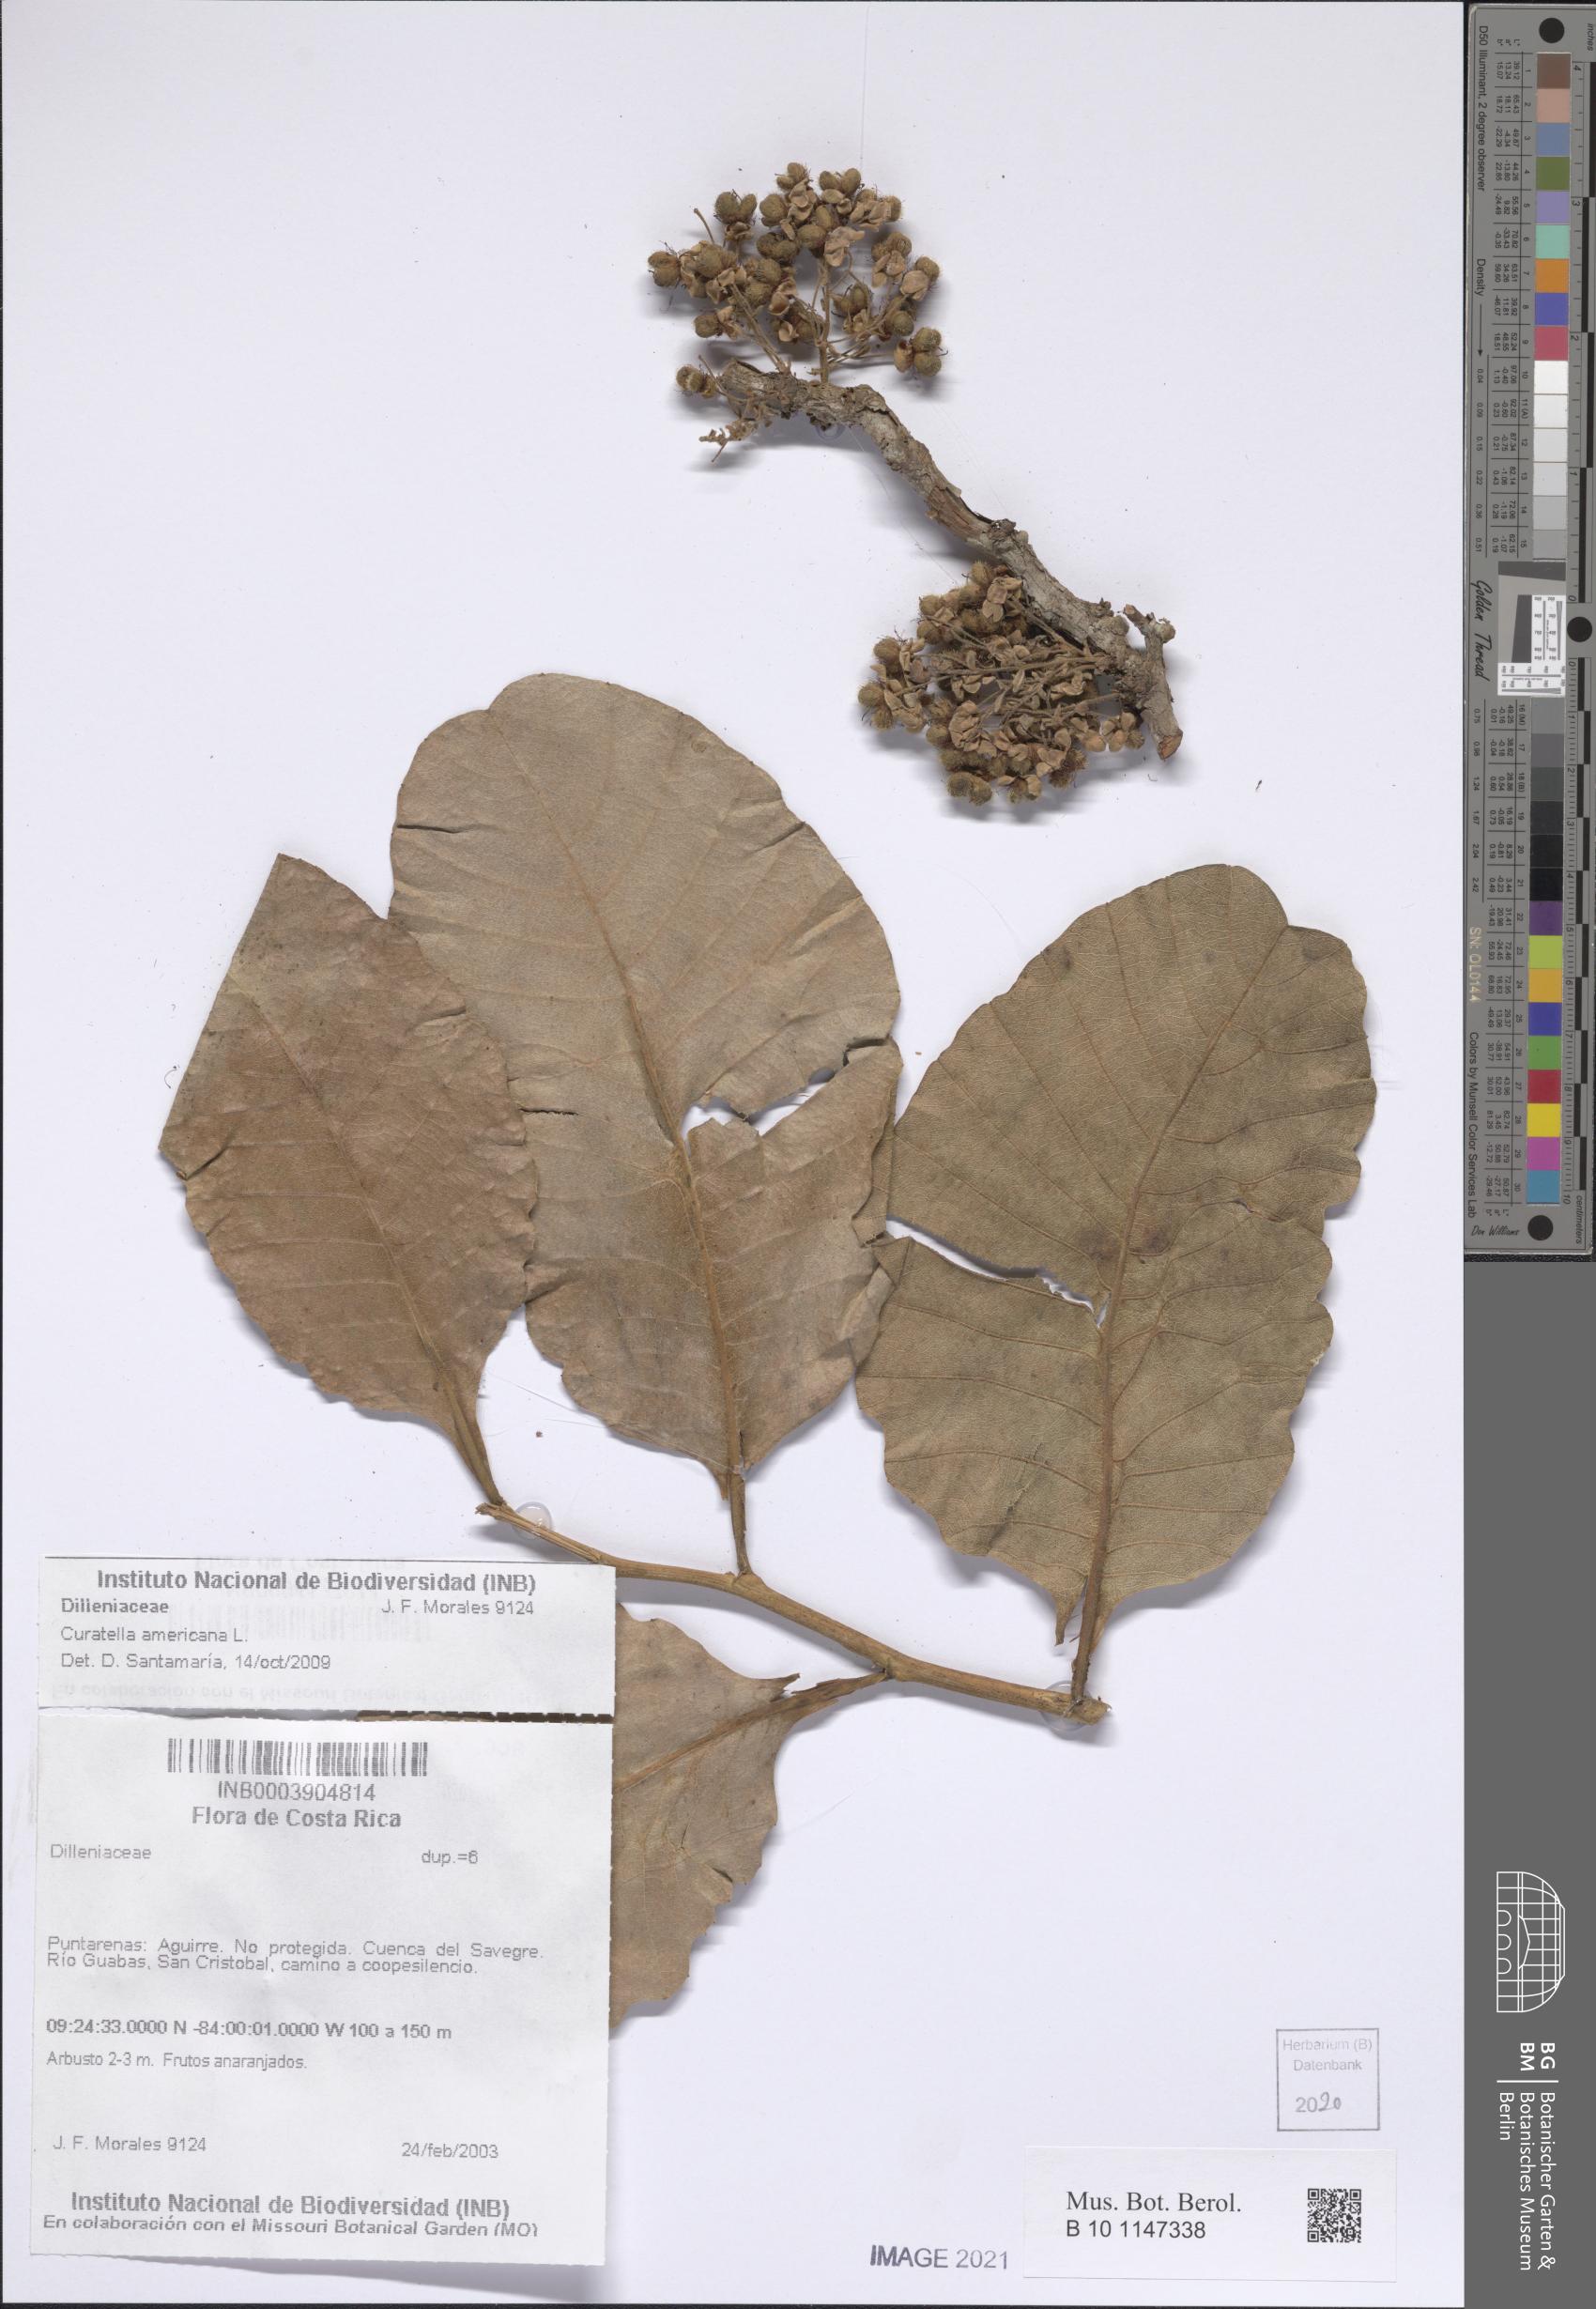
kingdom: Plantae
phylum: Tracheophyta
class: Magnoliopsida
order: Dilleniales
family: Dilleniaceae
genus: Curatella
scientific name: Curatella americana
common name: Sandpaper tree
